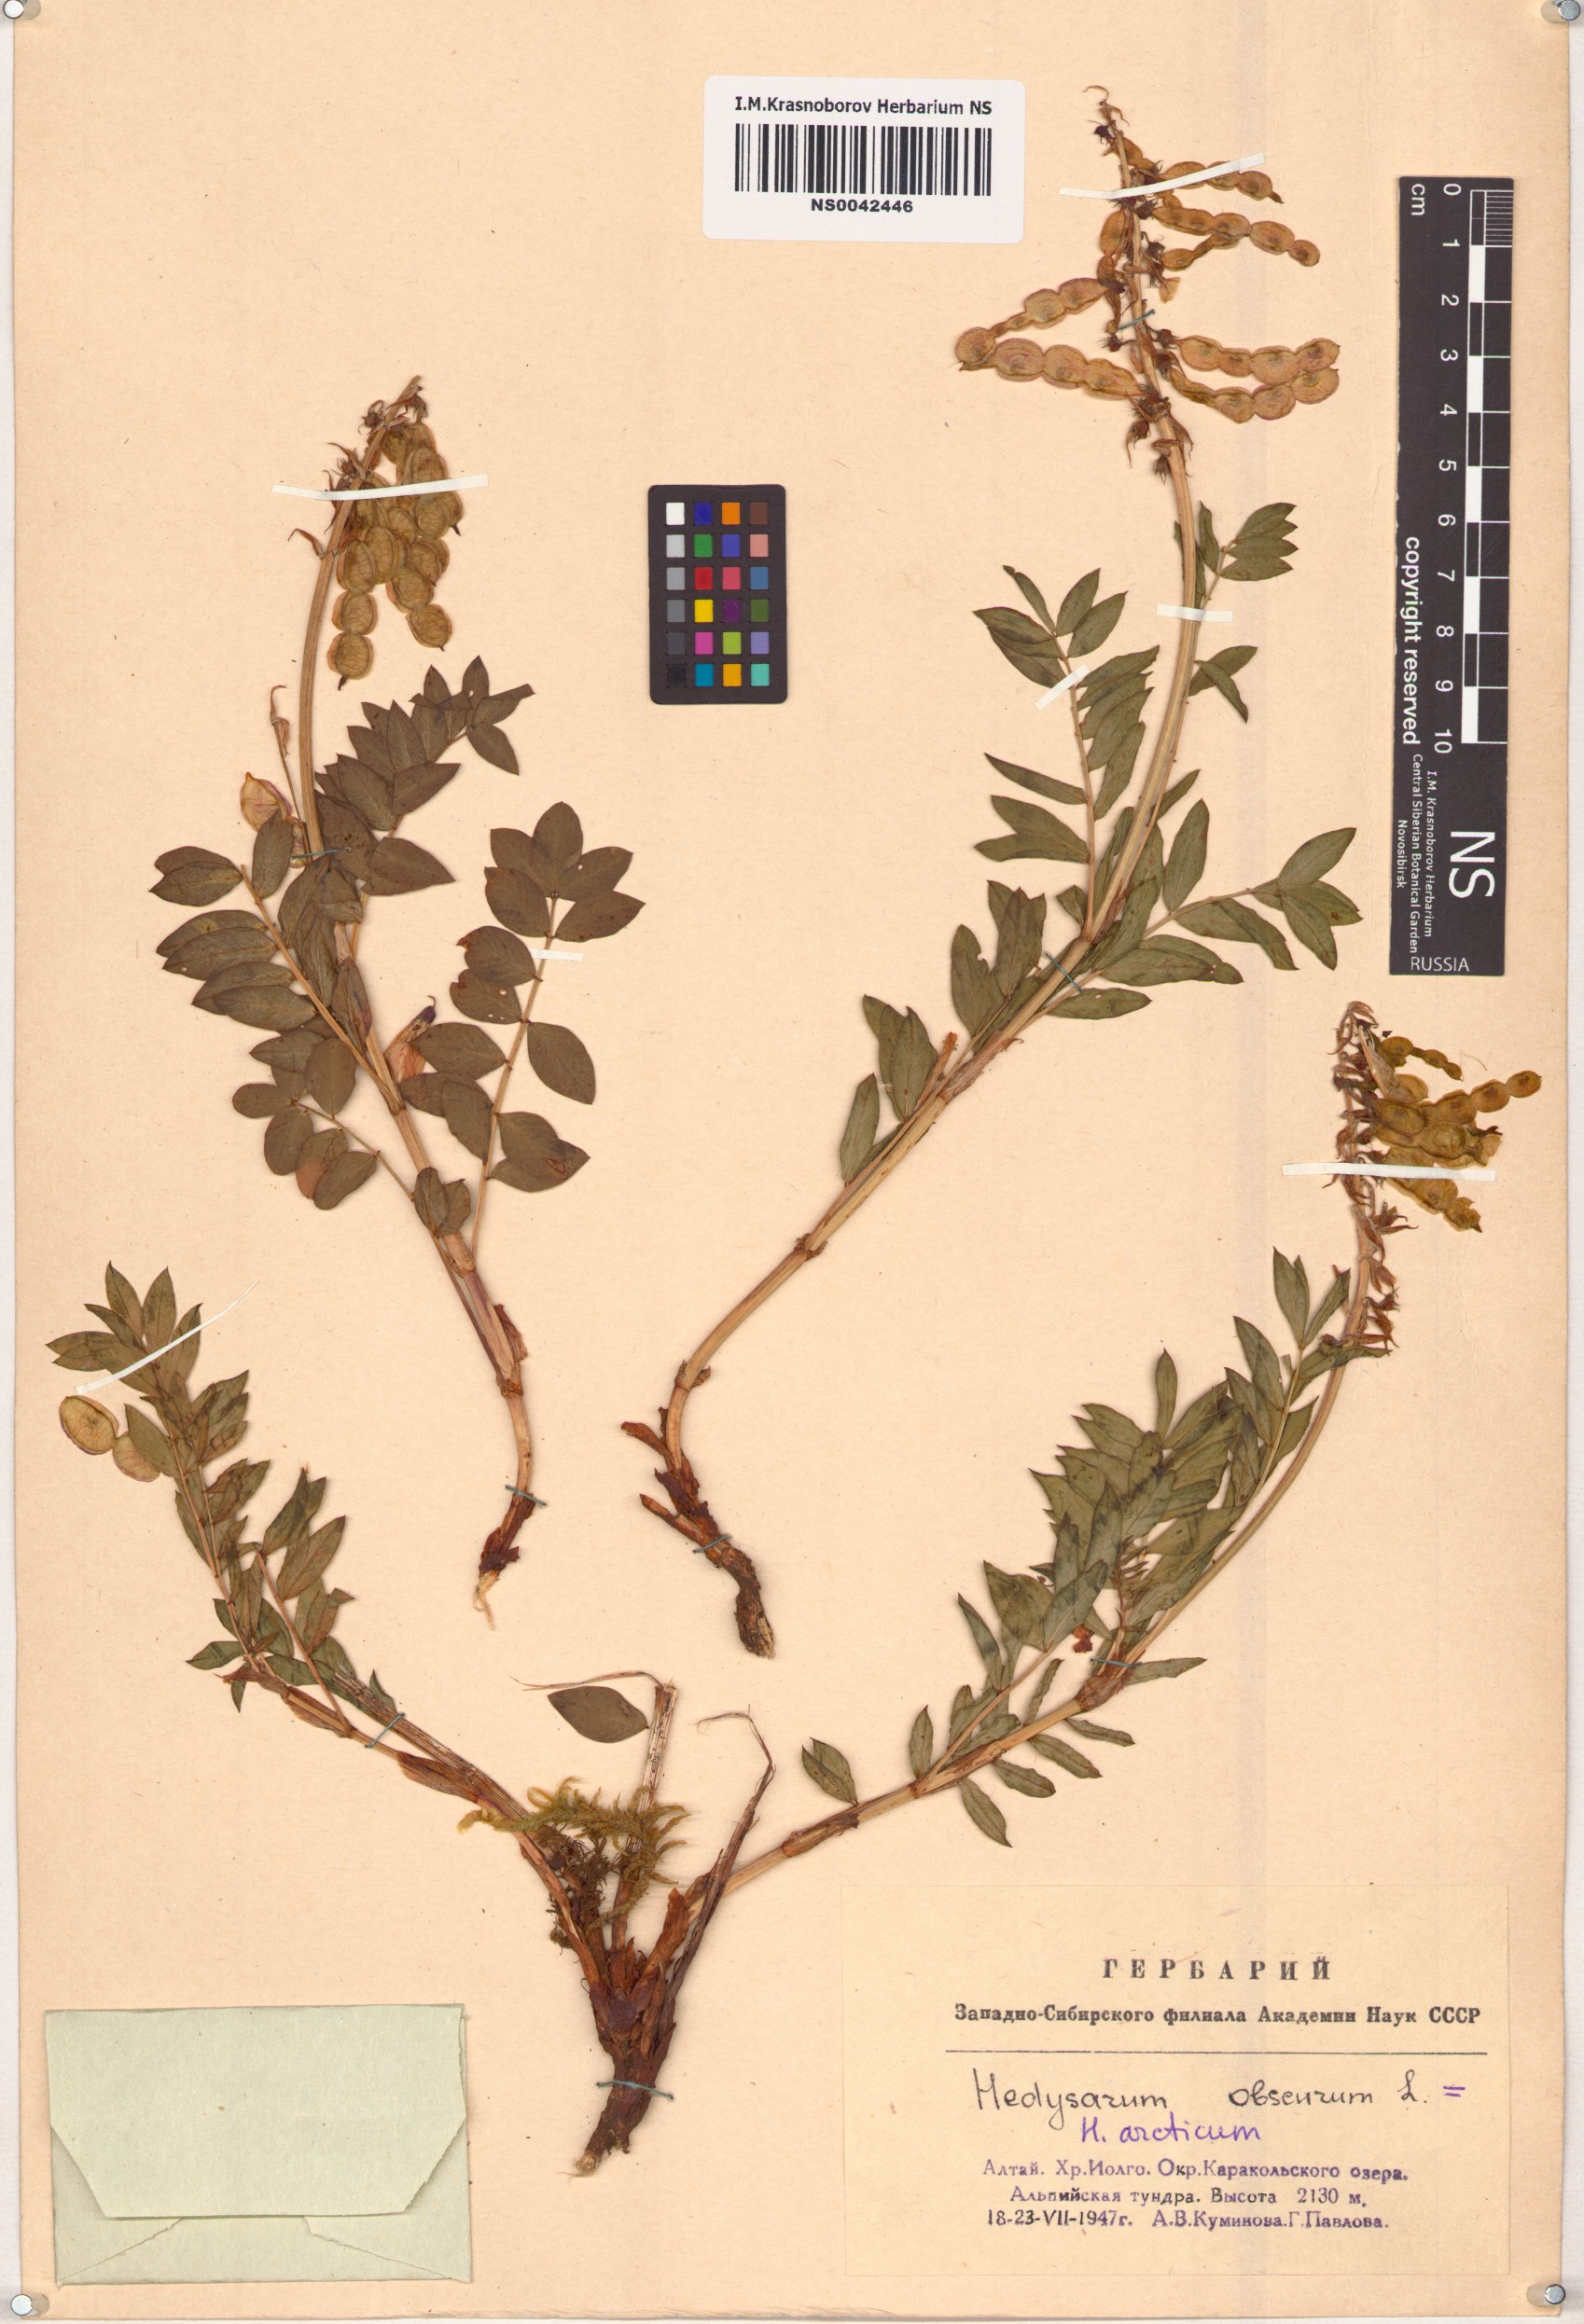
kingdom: Plantae
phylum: Tracheophyta
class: Magnoliopsida
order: Fabales
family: Fabaceae
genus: Hedysarum
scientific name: Hedysarum hedysaroides
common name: Alpine french-honeysuckle
